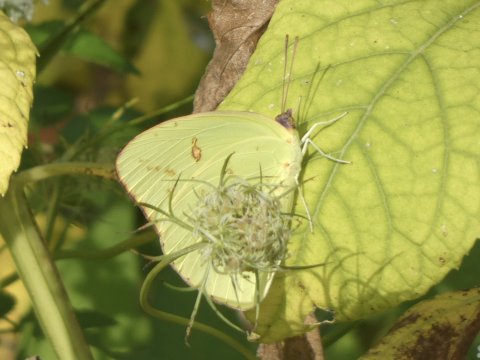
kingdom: Animalia
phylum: Arthropoda
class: Insecta
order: Lepidoptera
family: Pieridae
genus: Phoebis
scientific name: Phoebis sennae
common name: Cloudless Sulphur
